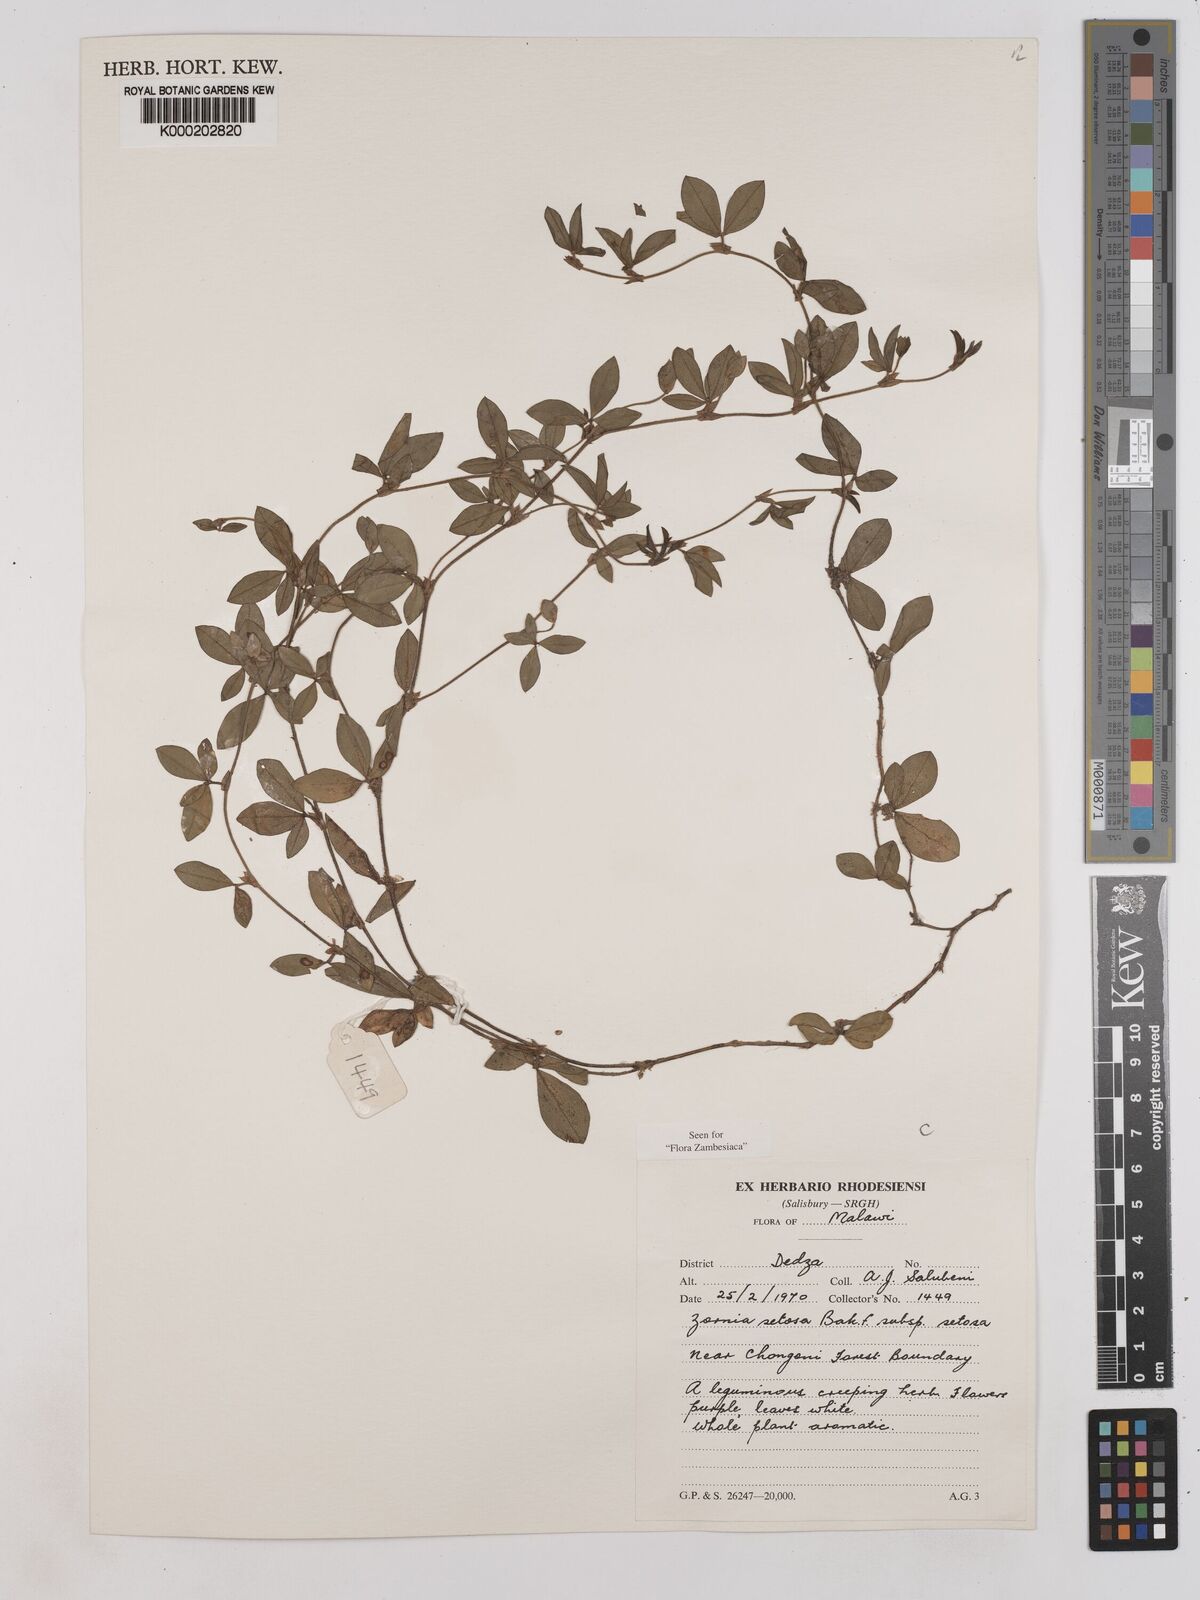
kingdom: Plantae
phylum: Tracheophyta
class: Magnoliopsida
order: Fabales
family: Fabaceae
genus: Zornia
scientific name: Zornia setosa
